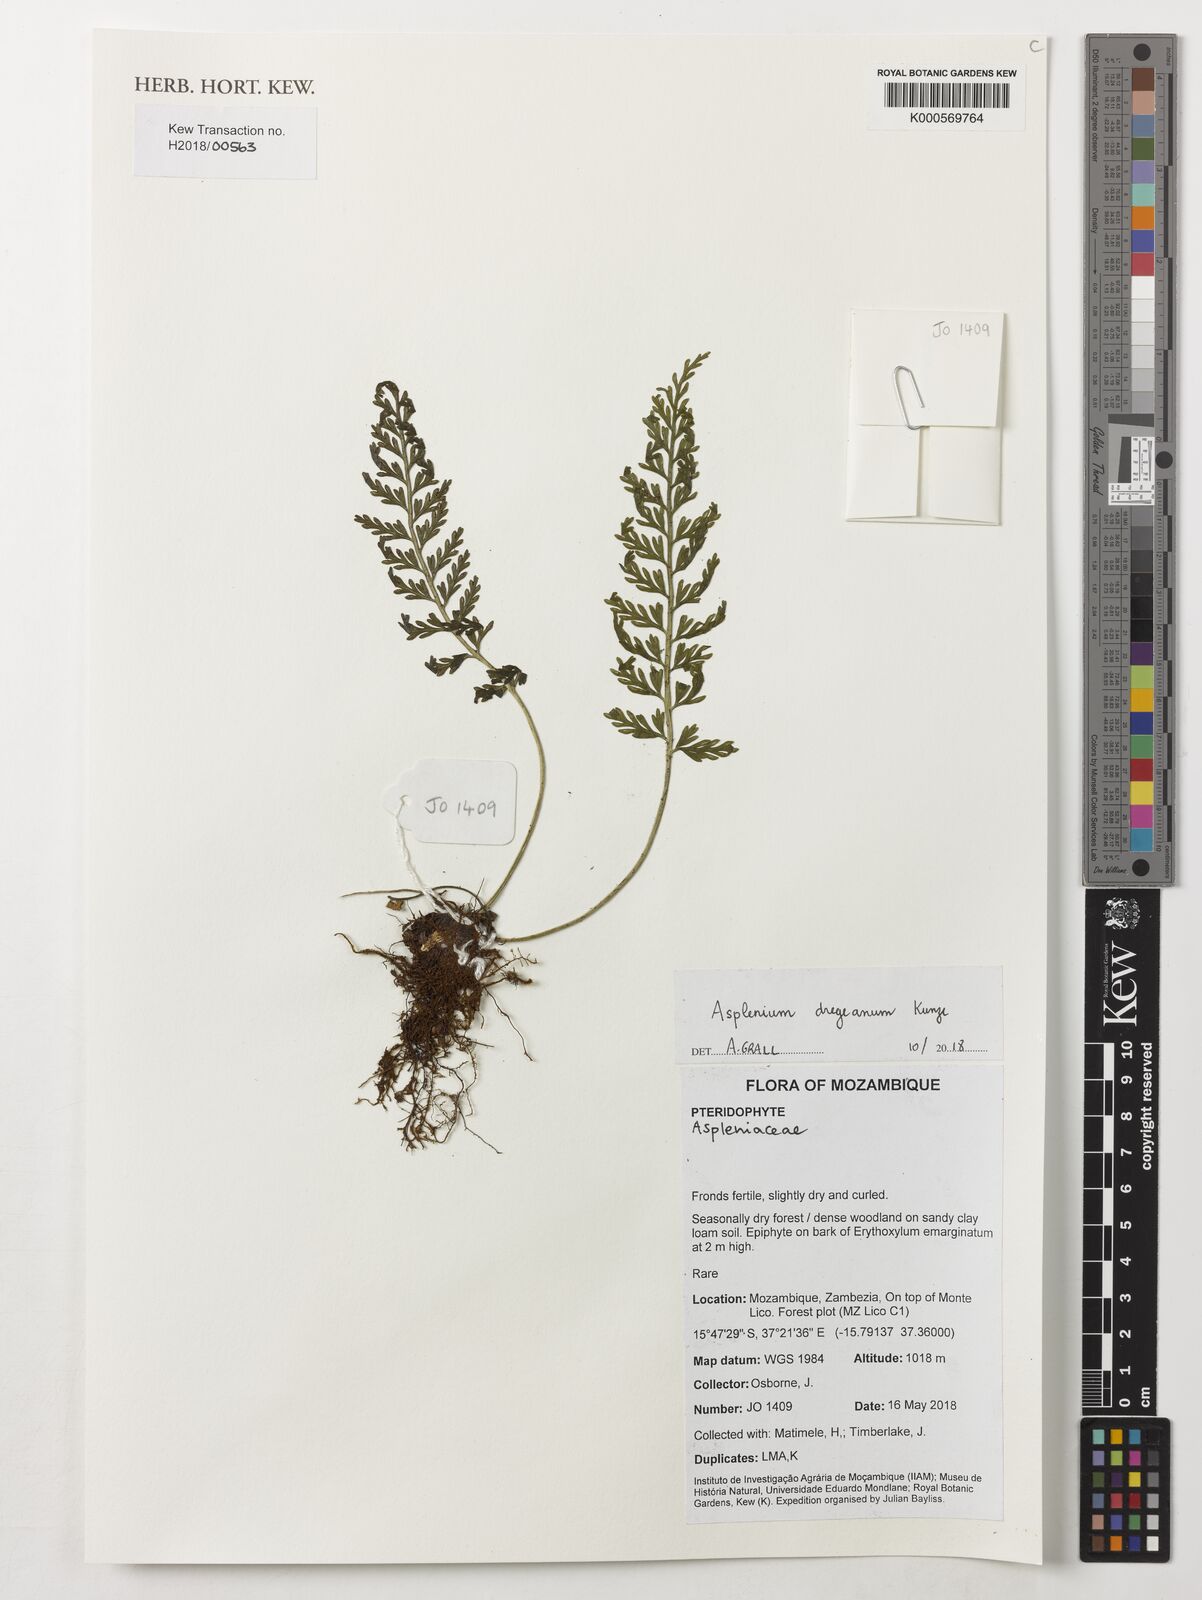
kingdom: Plantae
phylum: Tracheophyta
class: Polypodiopsida
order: Polypodiales
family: Aspleniaceae
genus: Asplenium
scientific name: Asplenium dregeanum
